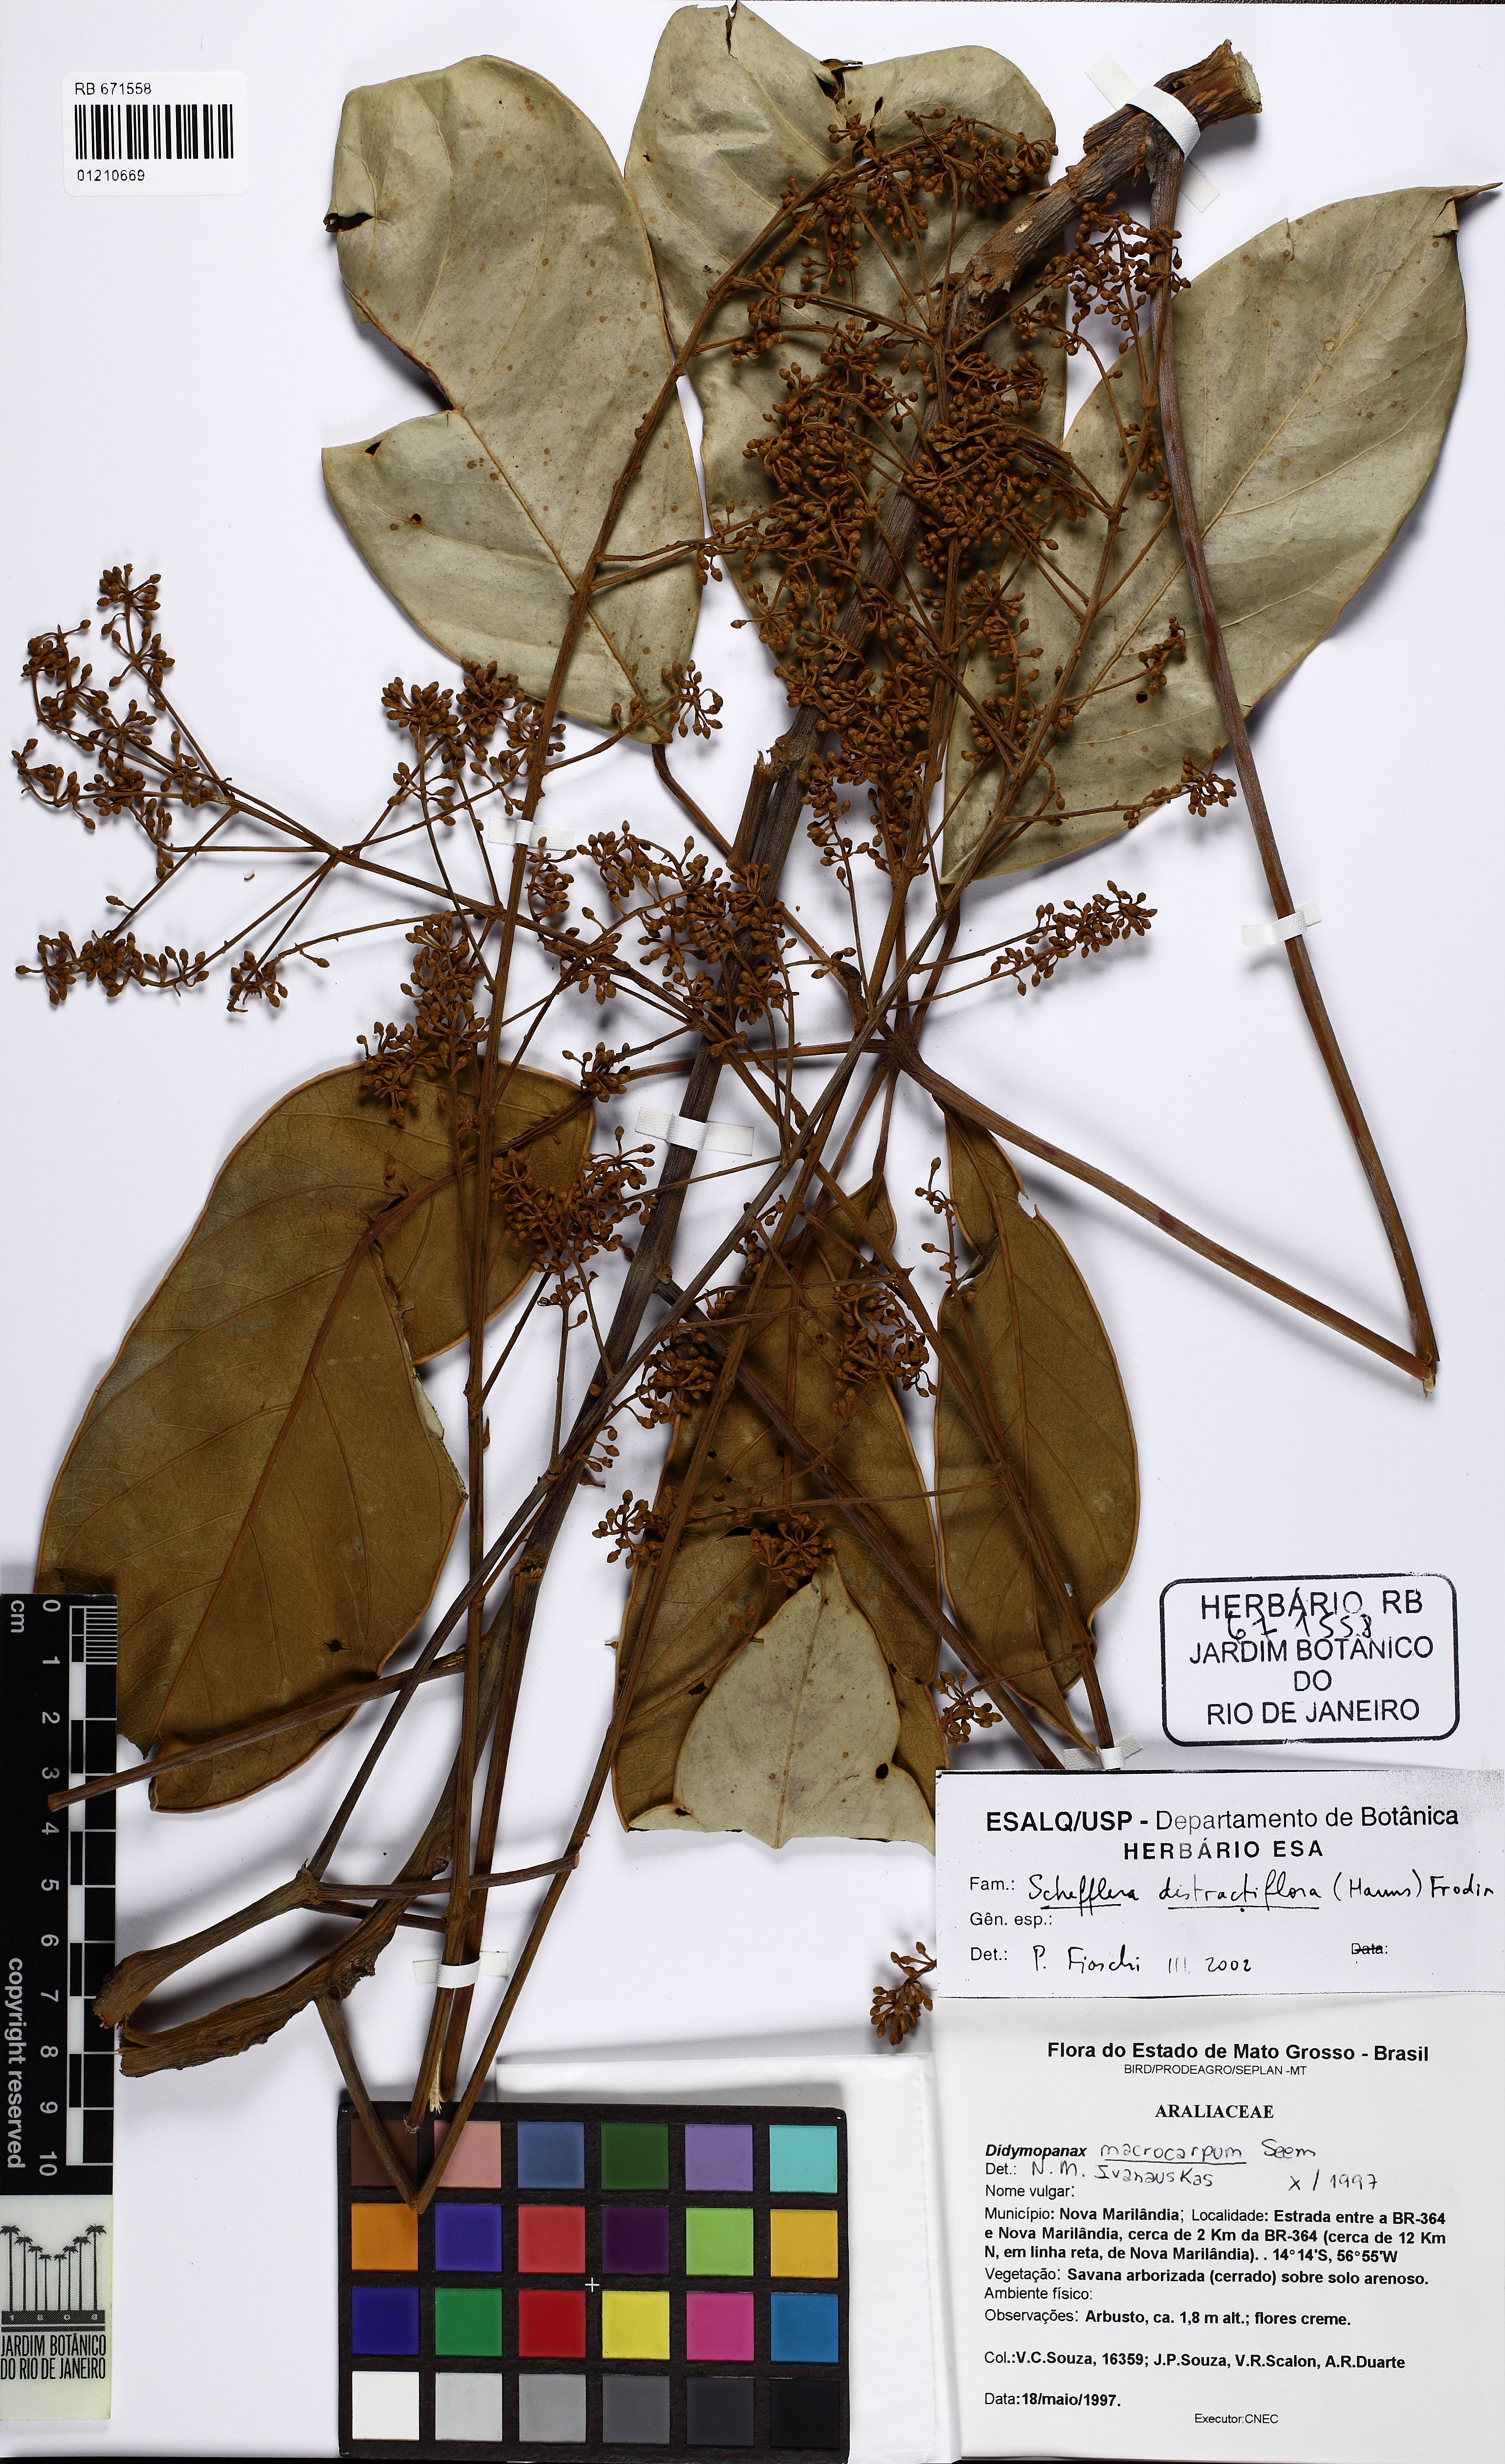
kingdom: Plantae
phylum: Tracheophyta
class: Magnoliopsida
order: Apiales
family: Araliaceae
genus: Didymopanax
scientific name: Didymopanax distractiflorus
